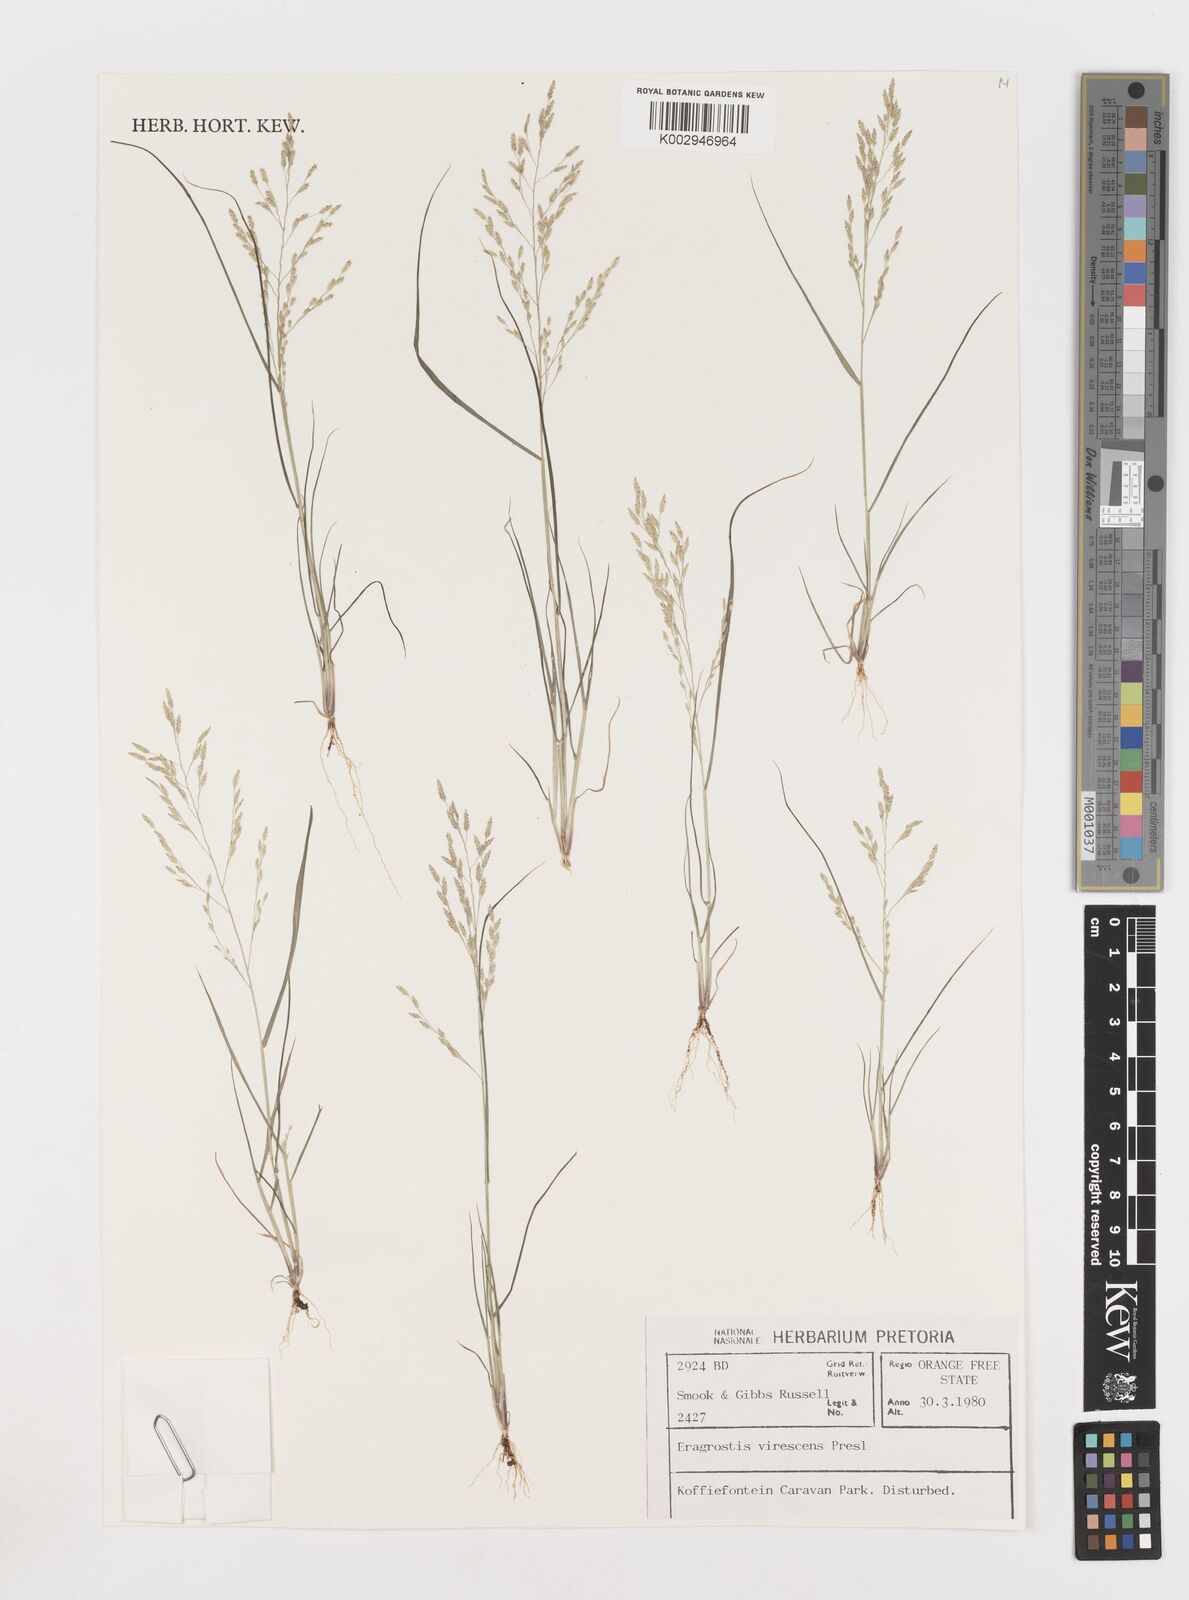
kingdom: Plantae
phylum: Tracheophyta
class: Liliopsida
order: Poales
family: Poaceae
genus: Eragrostis
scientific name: Eragrostis
